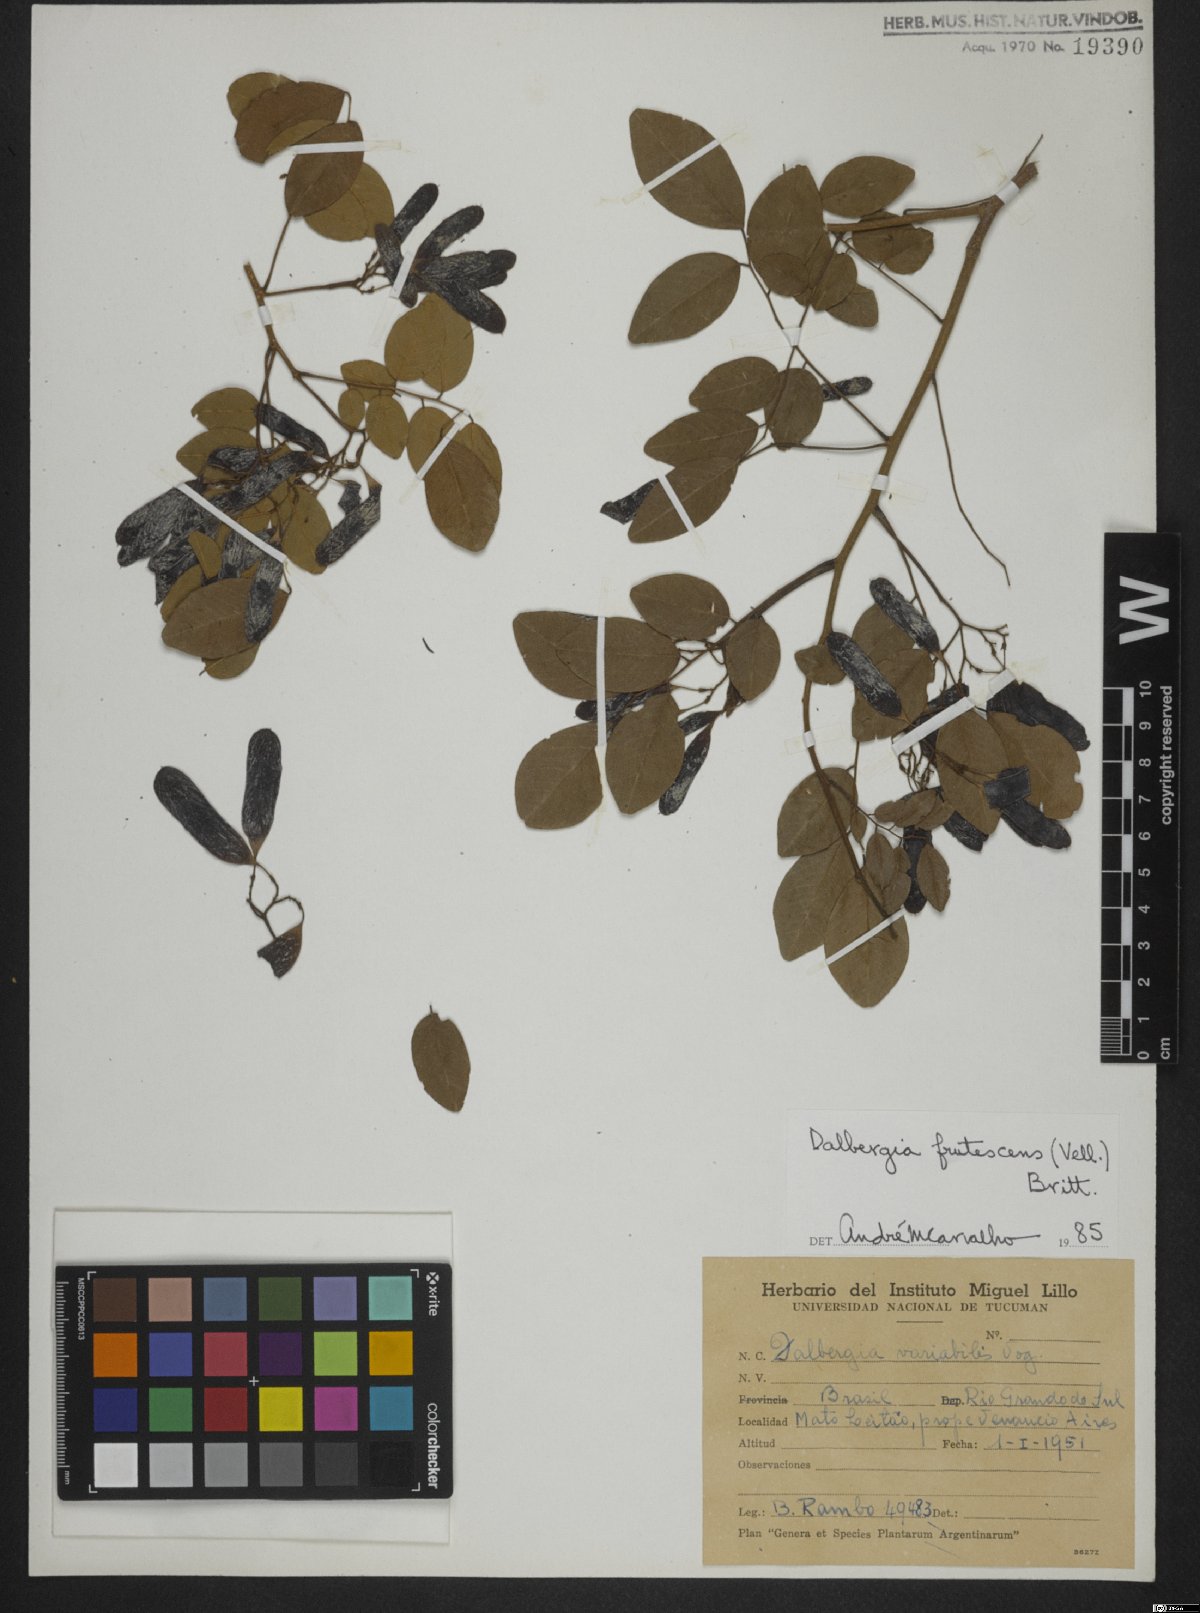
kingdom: Plantae
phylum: Tracheophyta
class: Magnoliopsida
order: Fabales
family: Fabaceae
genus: Dalbergia
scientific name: Dalbergia frutescens
